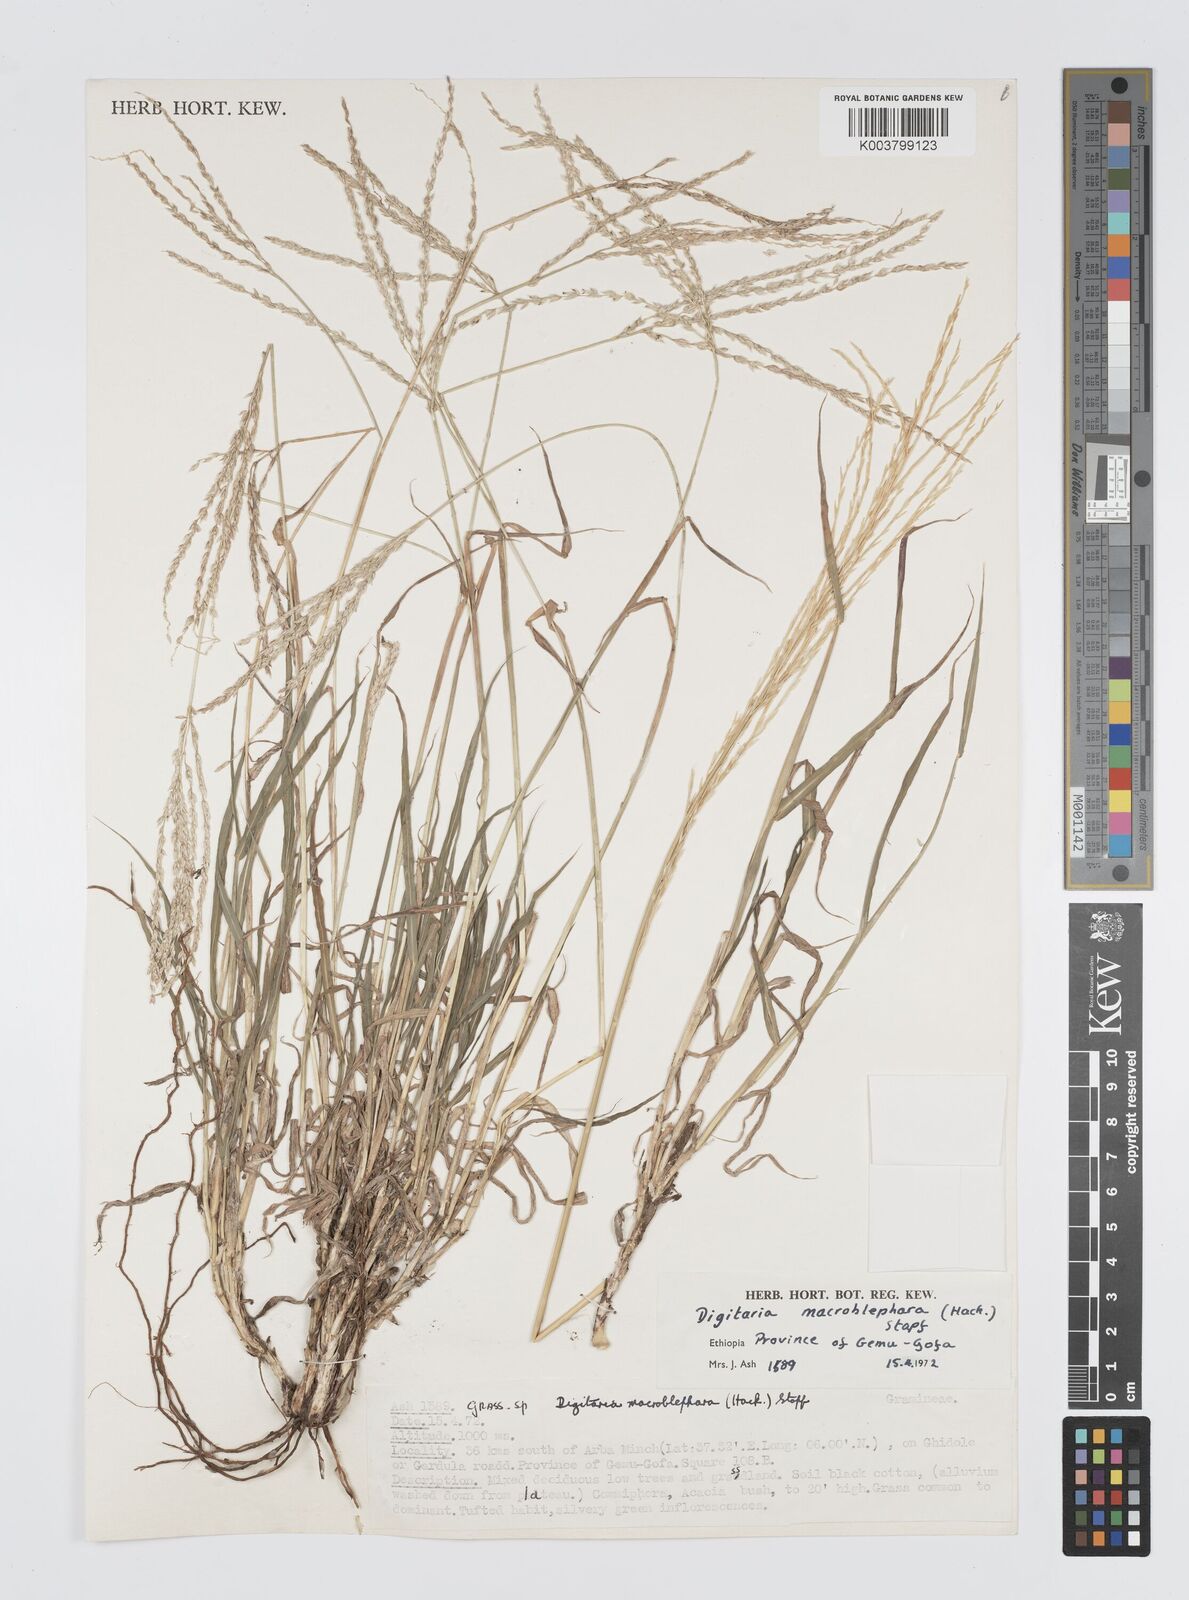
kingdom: Plantae
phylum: Tracheophyta
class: Liliopsida
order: Poales
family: Poaceae
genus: Digitaria
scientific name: Digitaria macroblephara
